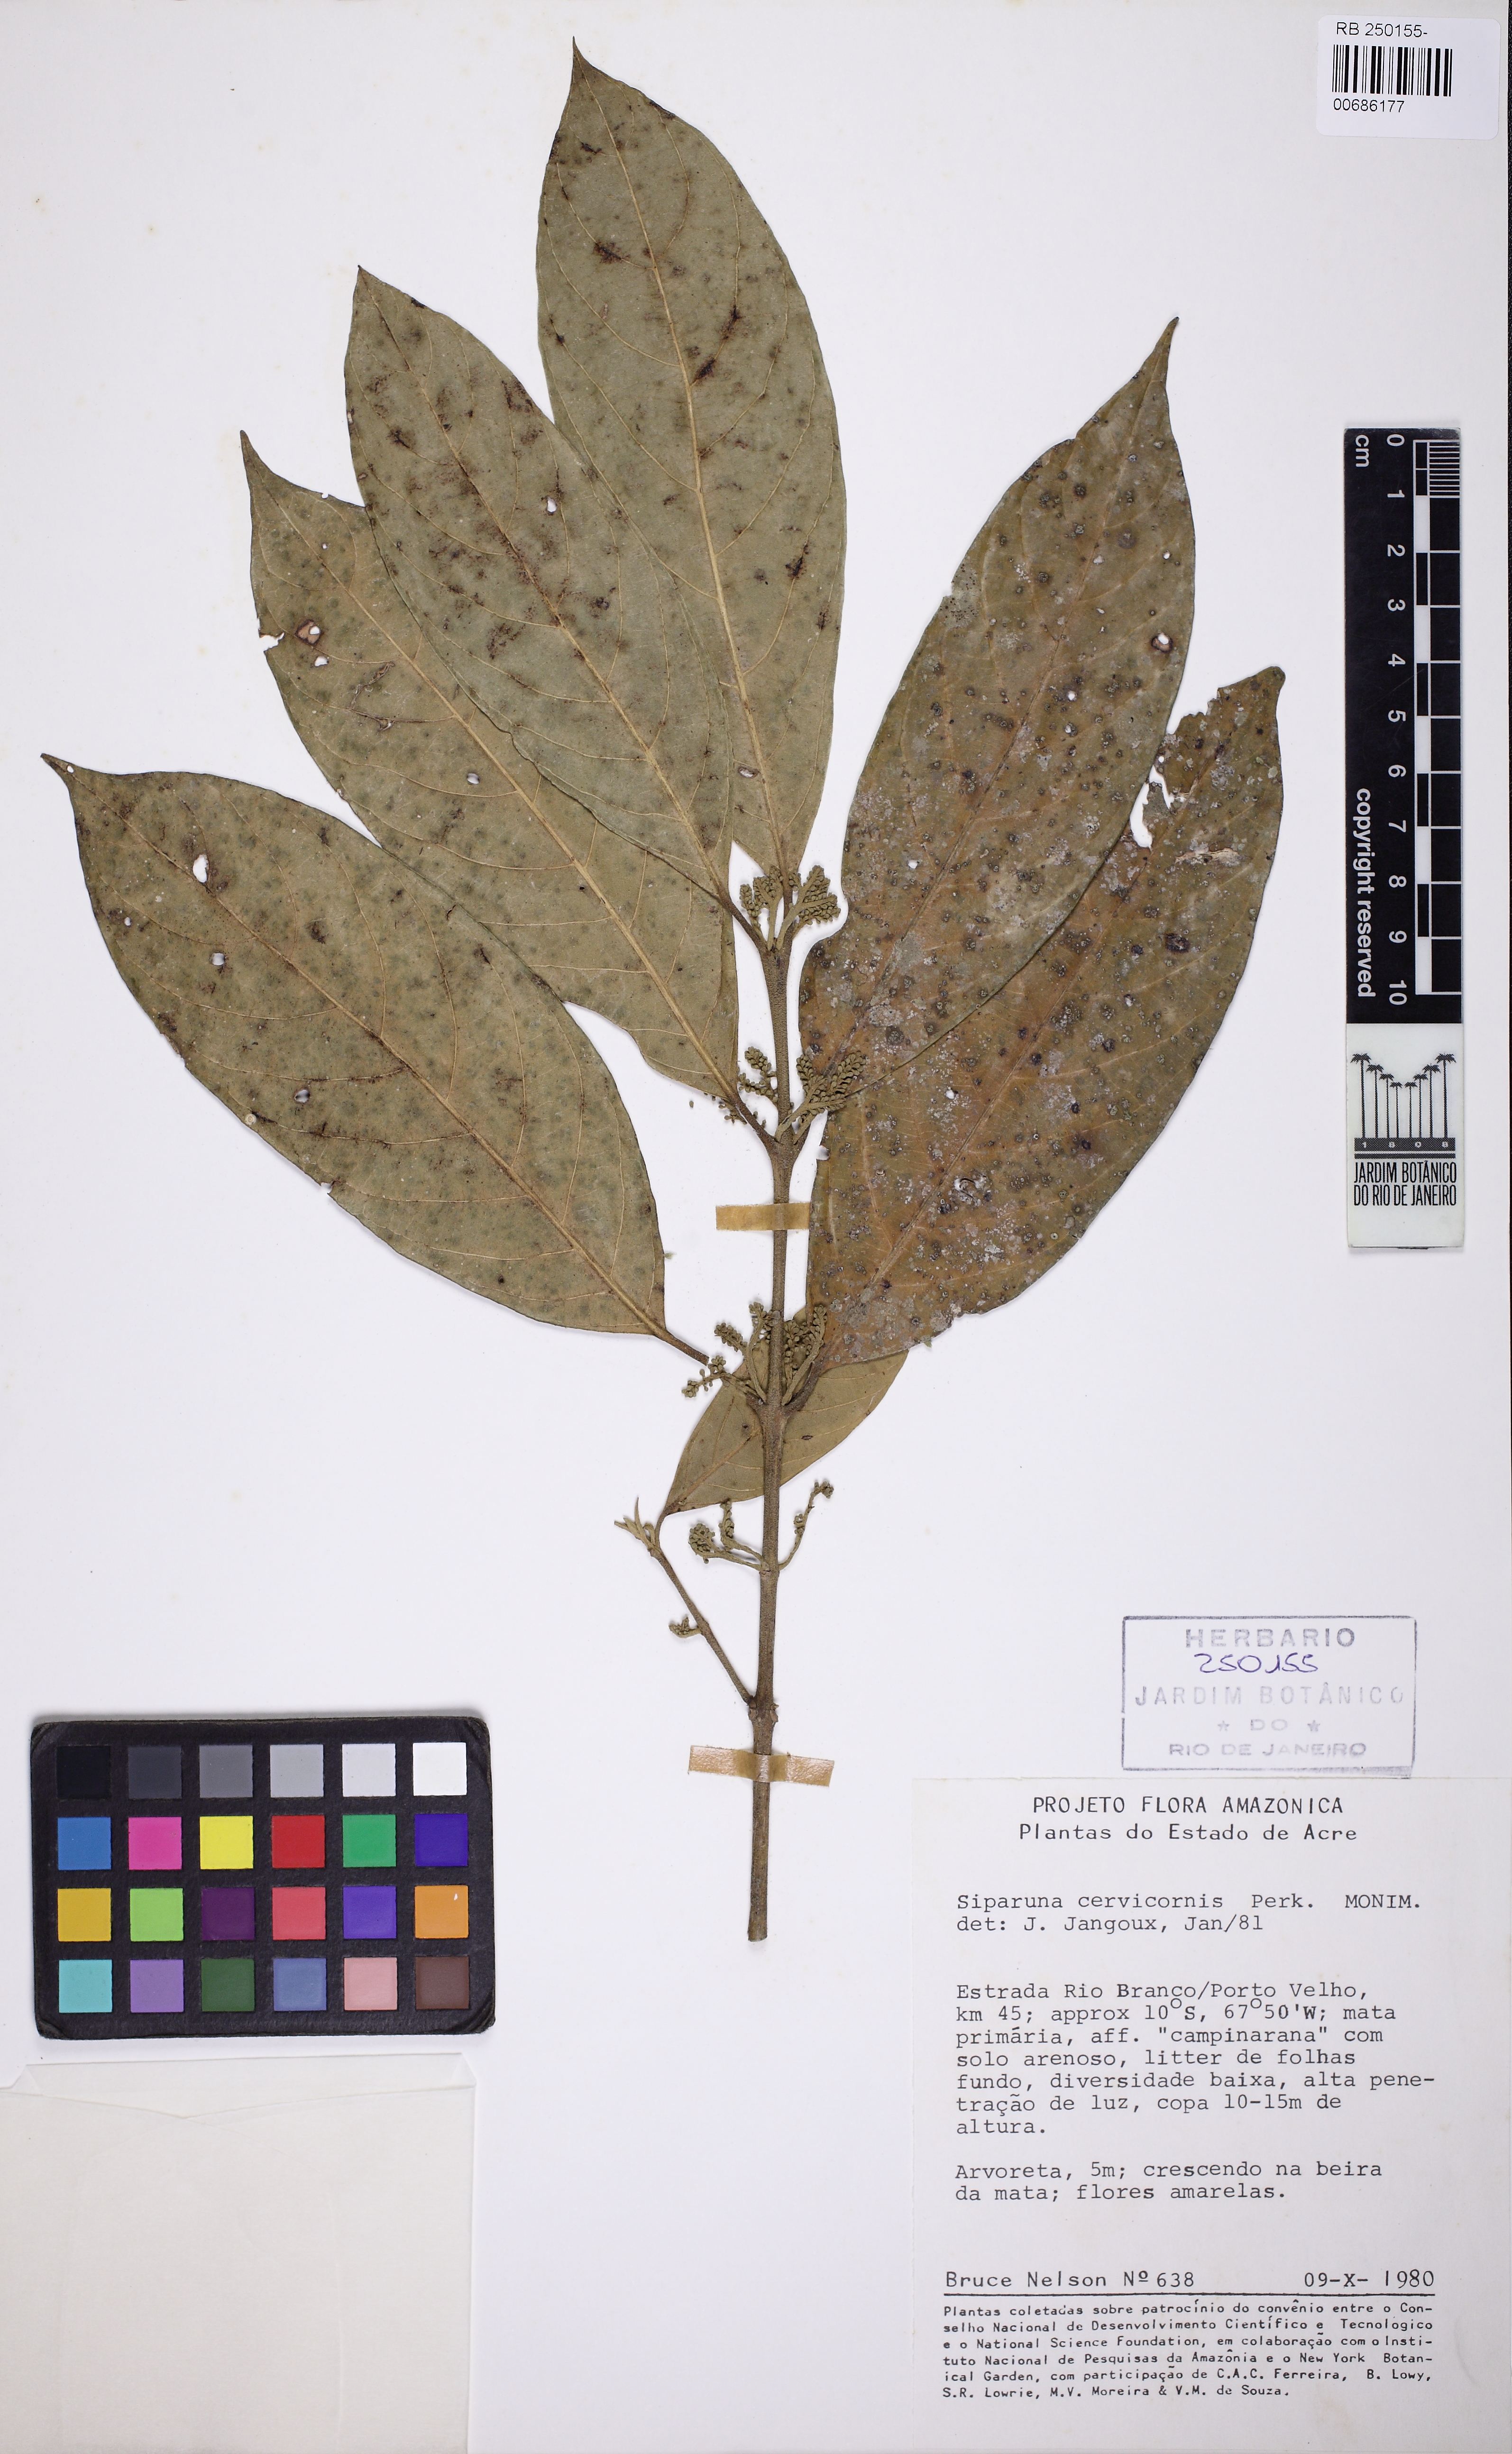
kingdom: Plantae
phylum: Tracheophyta
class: Magnoliopsida
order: Laurales
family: Siparunaceae
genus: Siparuna
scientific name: Siparuna cervicornis
